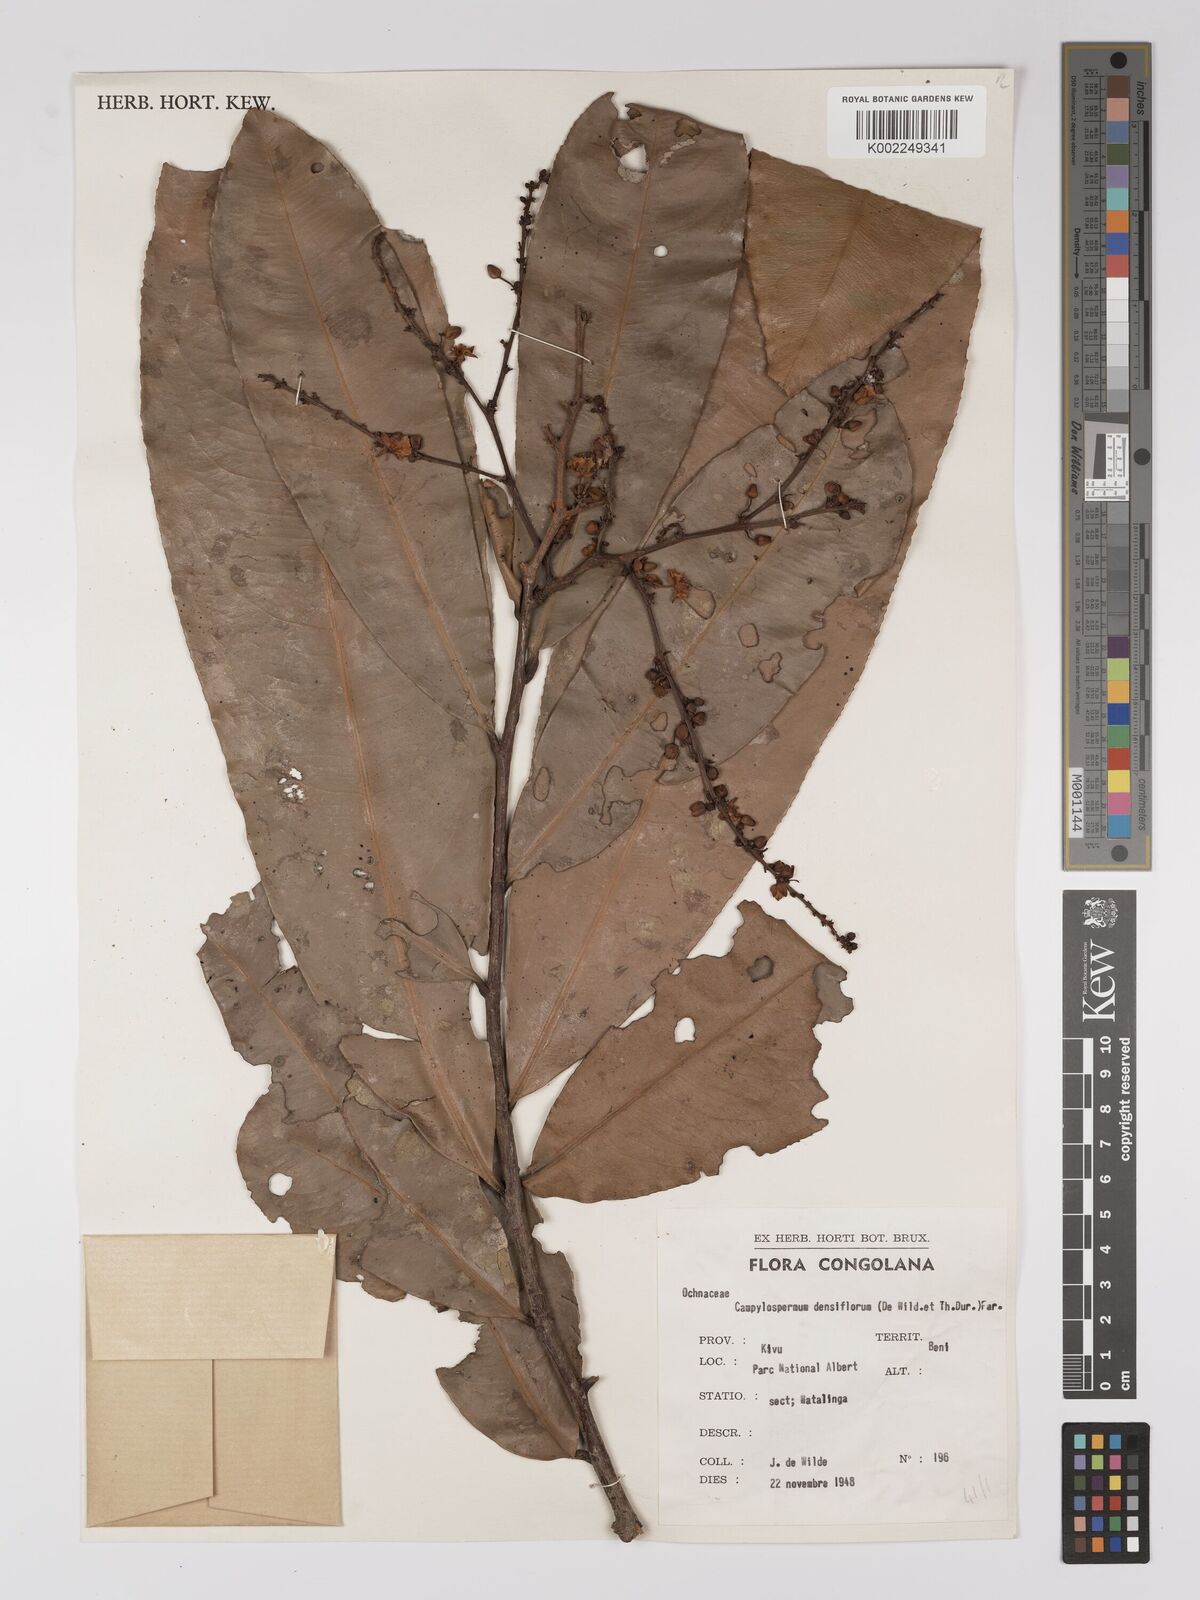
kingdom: Plantae
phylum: Tracheophyta
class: Magnoliopsida
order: Malpighiales
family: Ochnaceae
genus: Gomphia
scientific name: Gomphia densiflora
